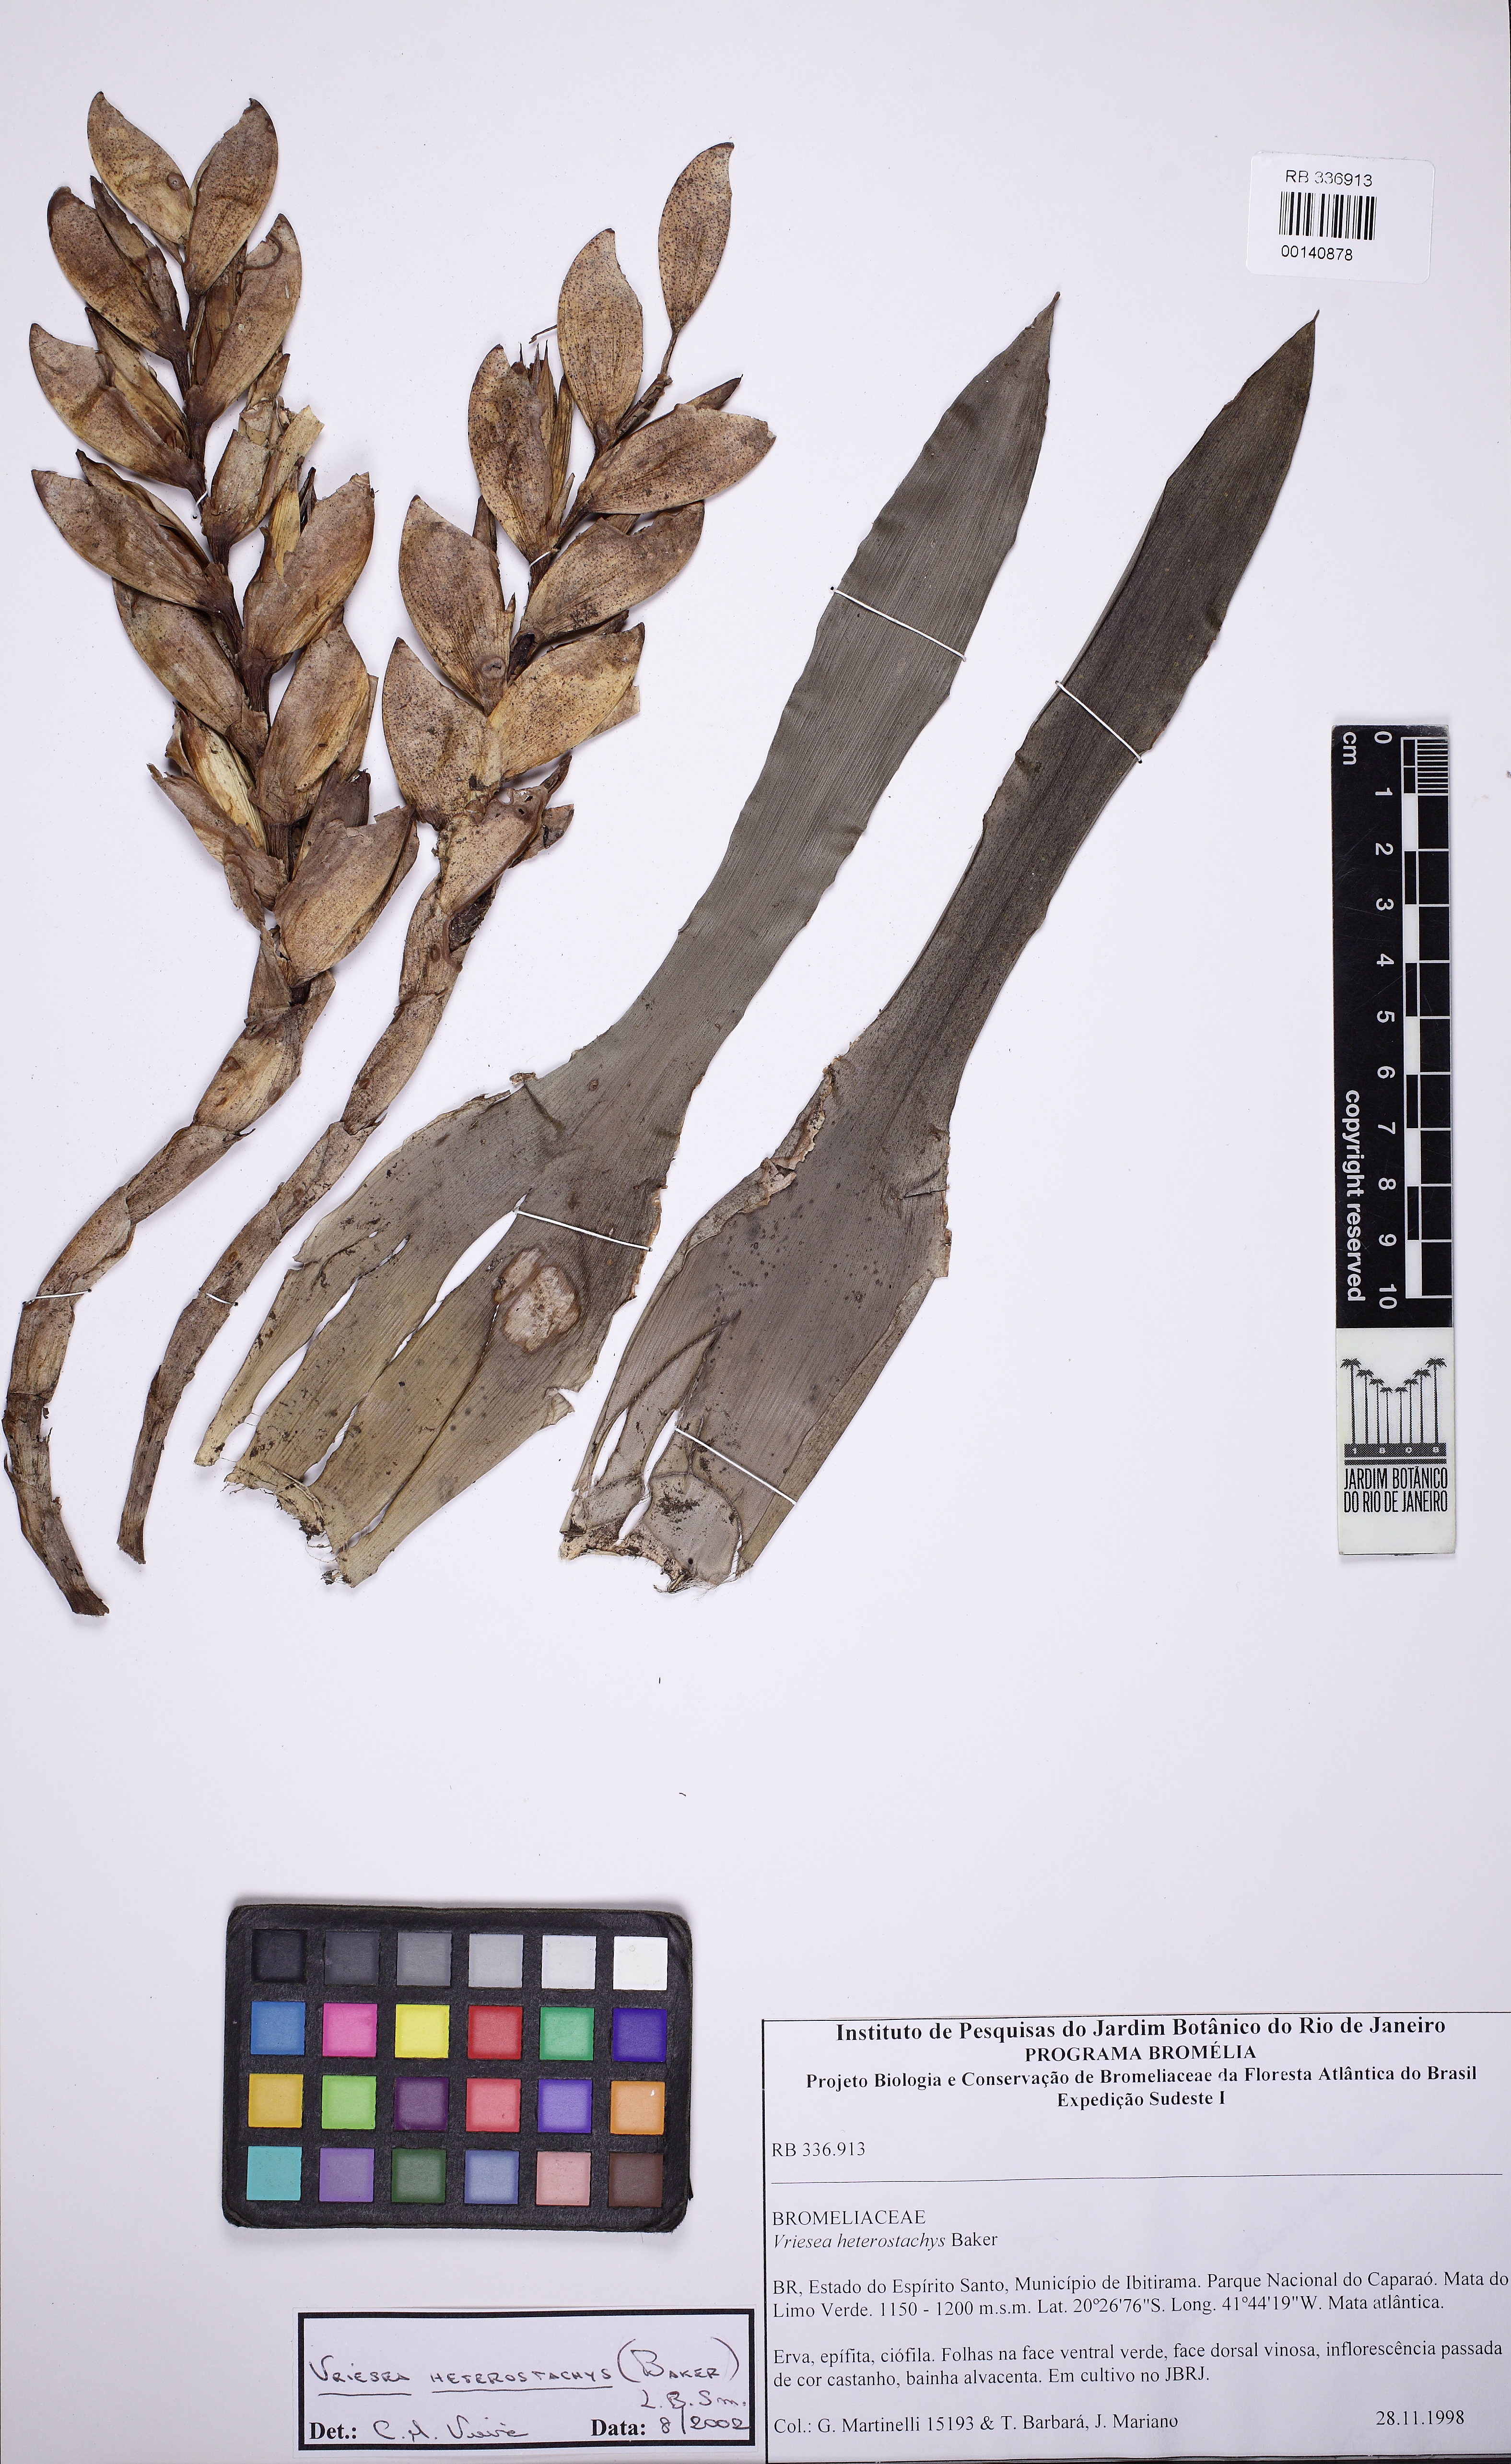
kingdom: Plantae
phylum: Tracheophyta
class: Liliopsida
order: Poales
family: Bromeliaceae
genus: Vriesea
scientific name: Vriesea heterostachys
